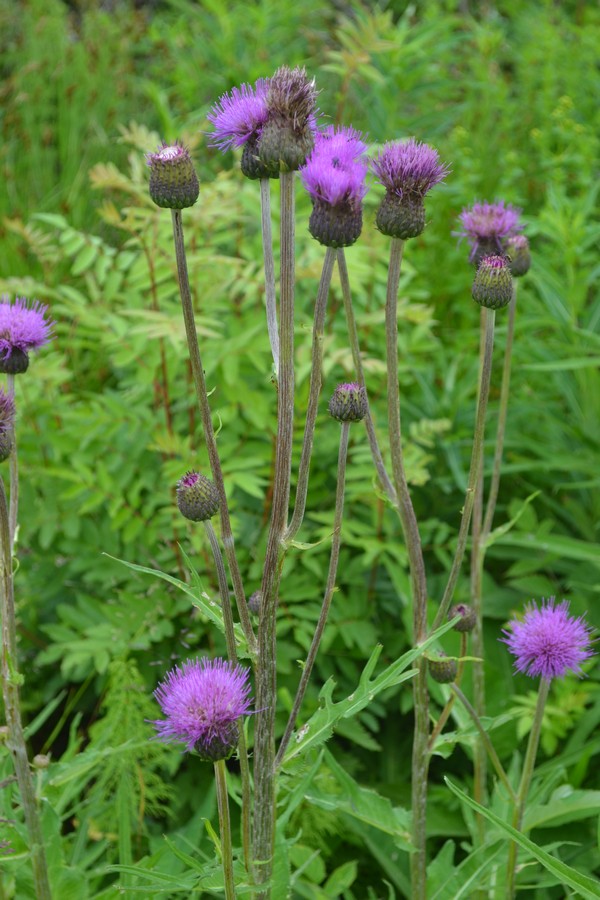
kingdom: Plantae
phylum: Tracheophyta
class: Magnoliopsida
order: Asterales
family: Asteraceae
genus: Cirsium
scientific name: Cirsium heterophyllum
